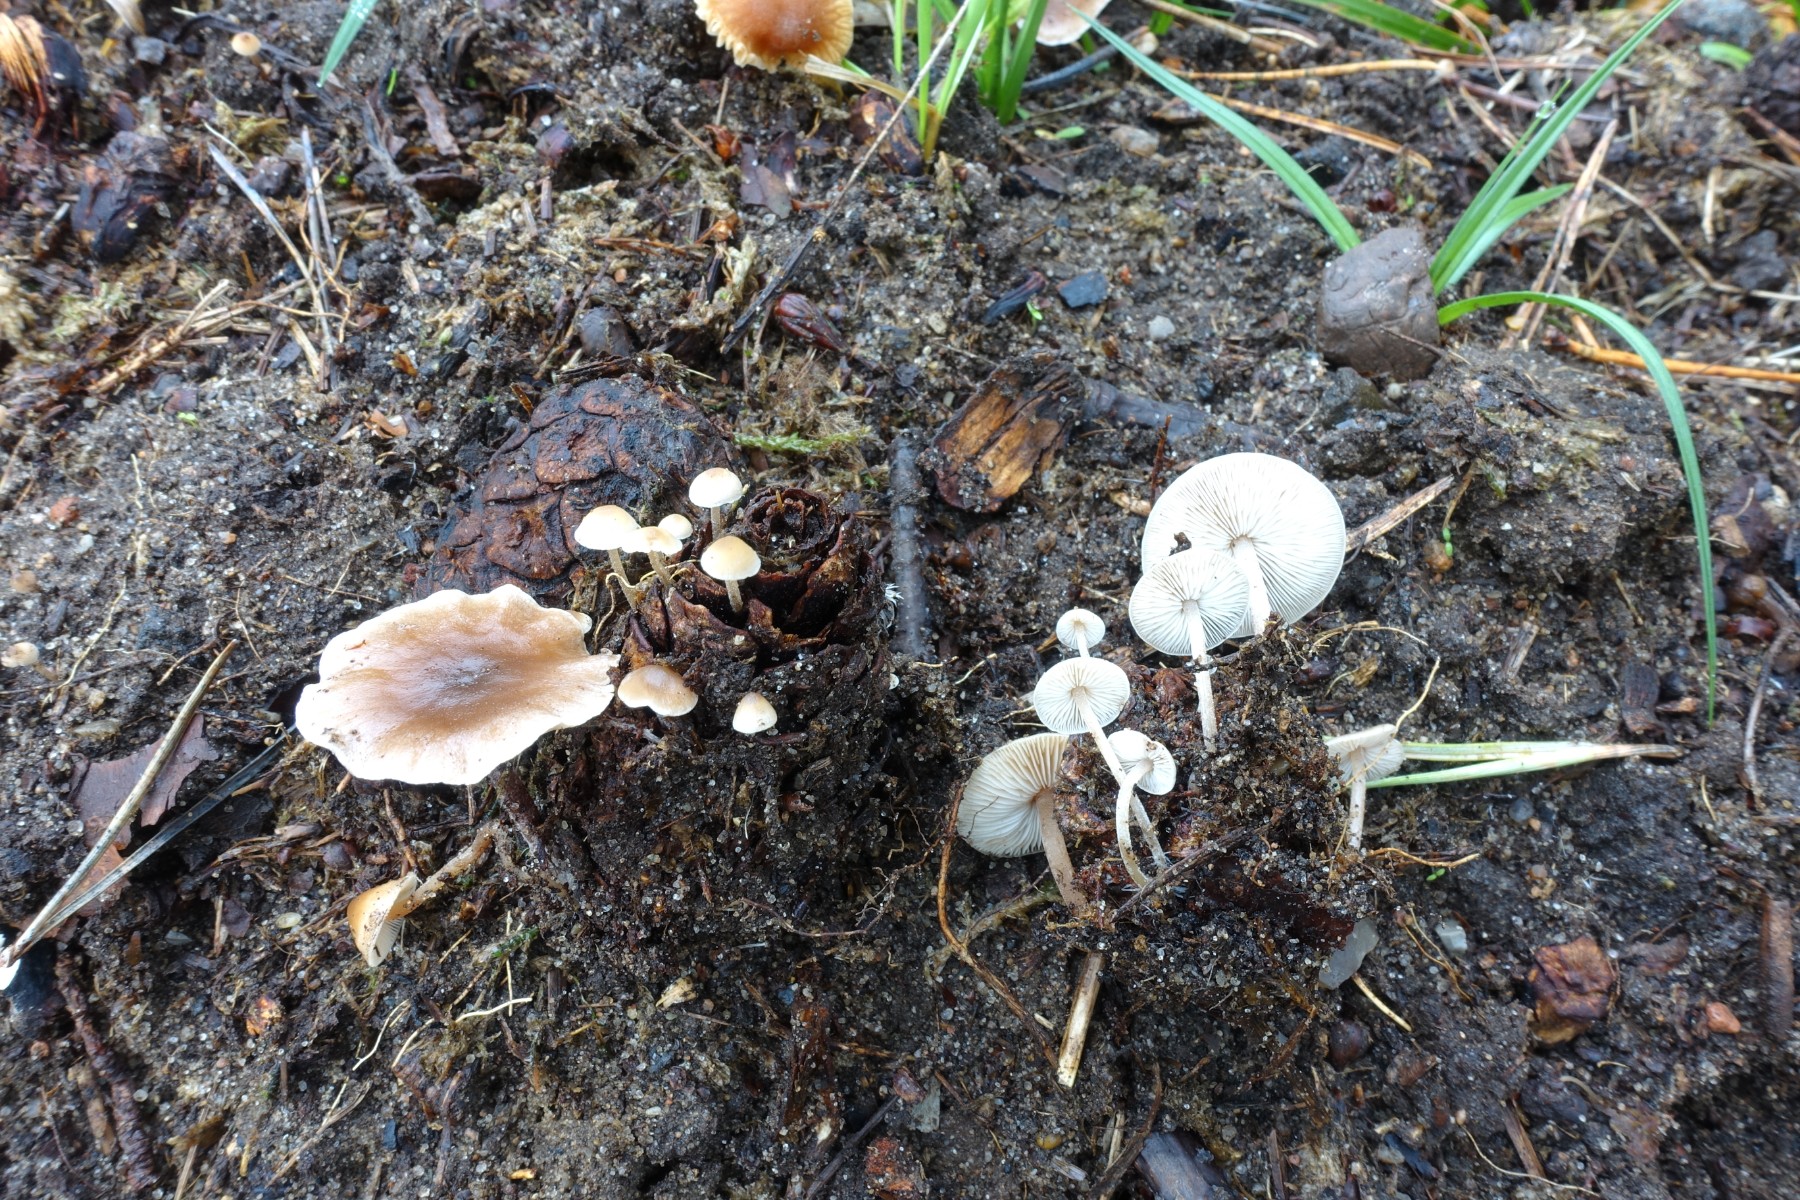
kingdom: Fungi
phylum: Basidiomycota
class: Agaricomycetes
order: Agaricales
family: Marasmiaceae
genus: Baeospora
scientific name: Baeospora myosura
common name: koglebruskhat
